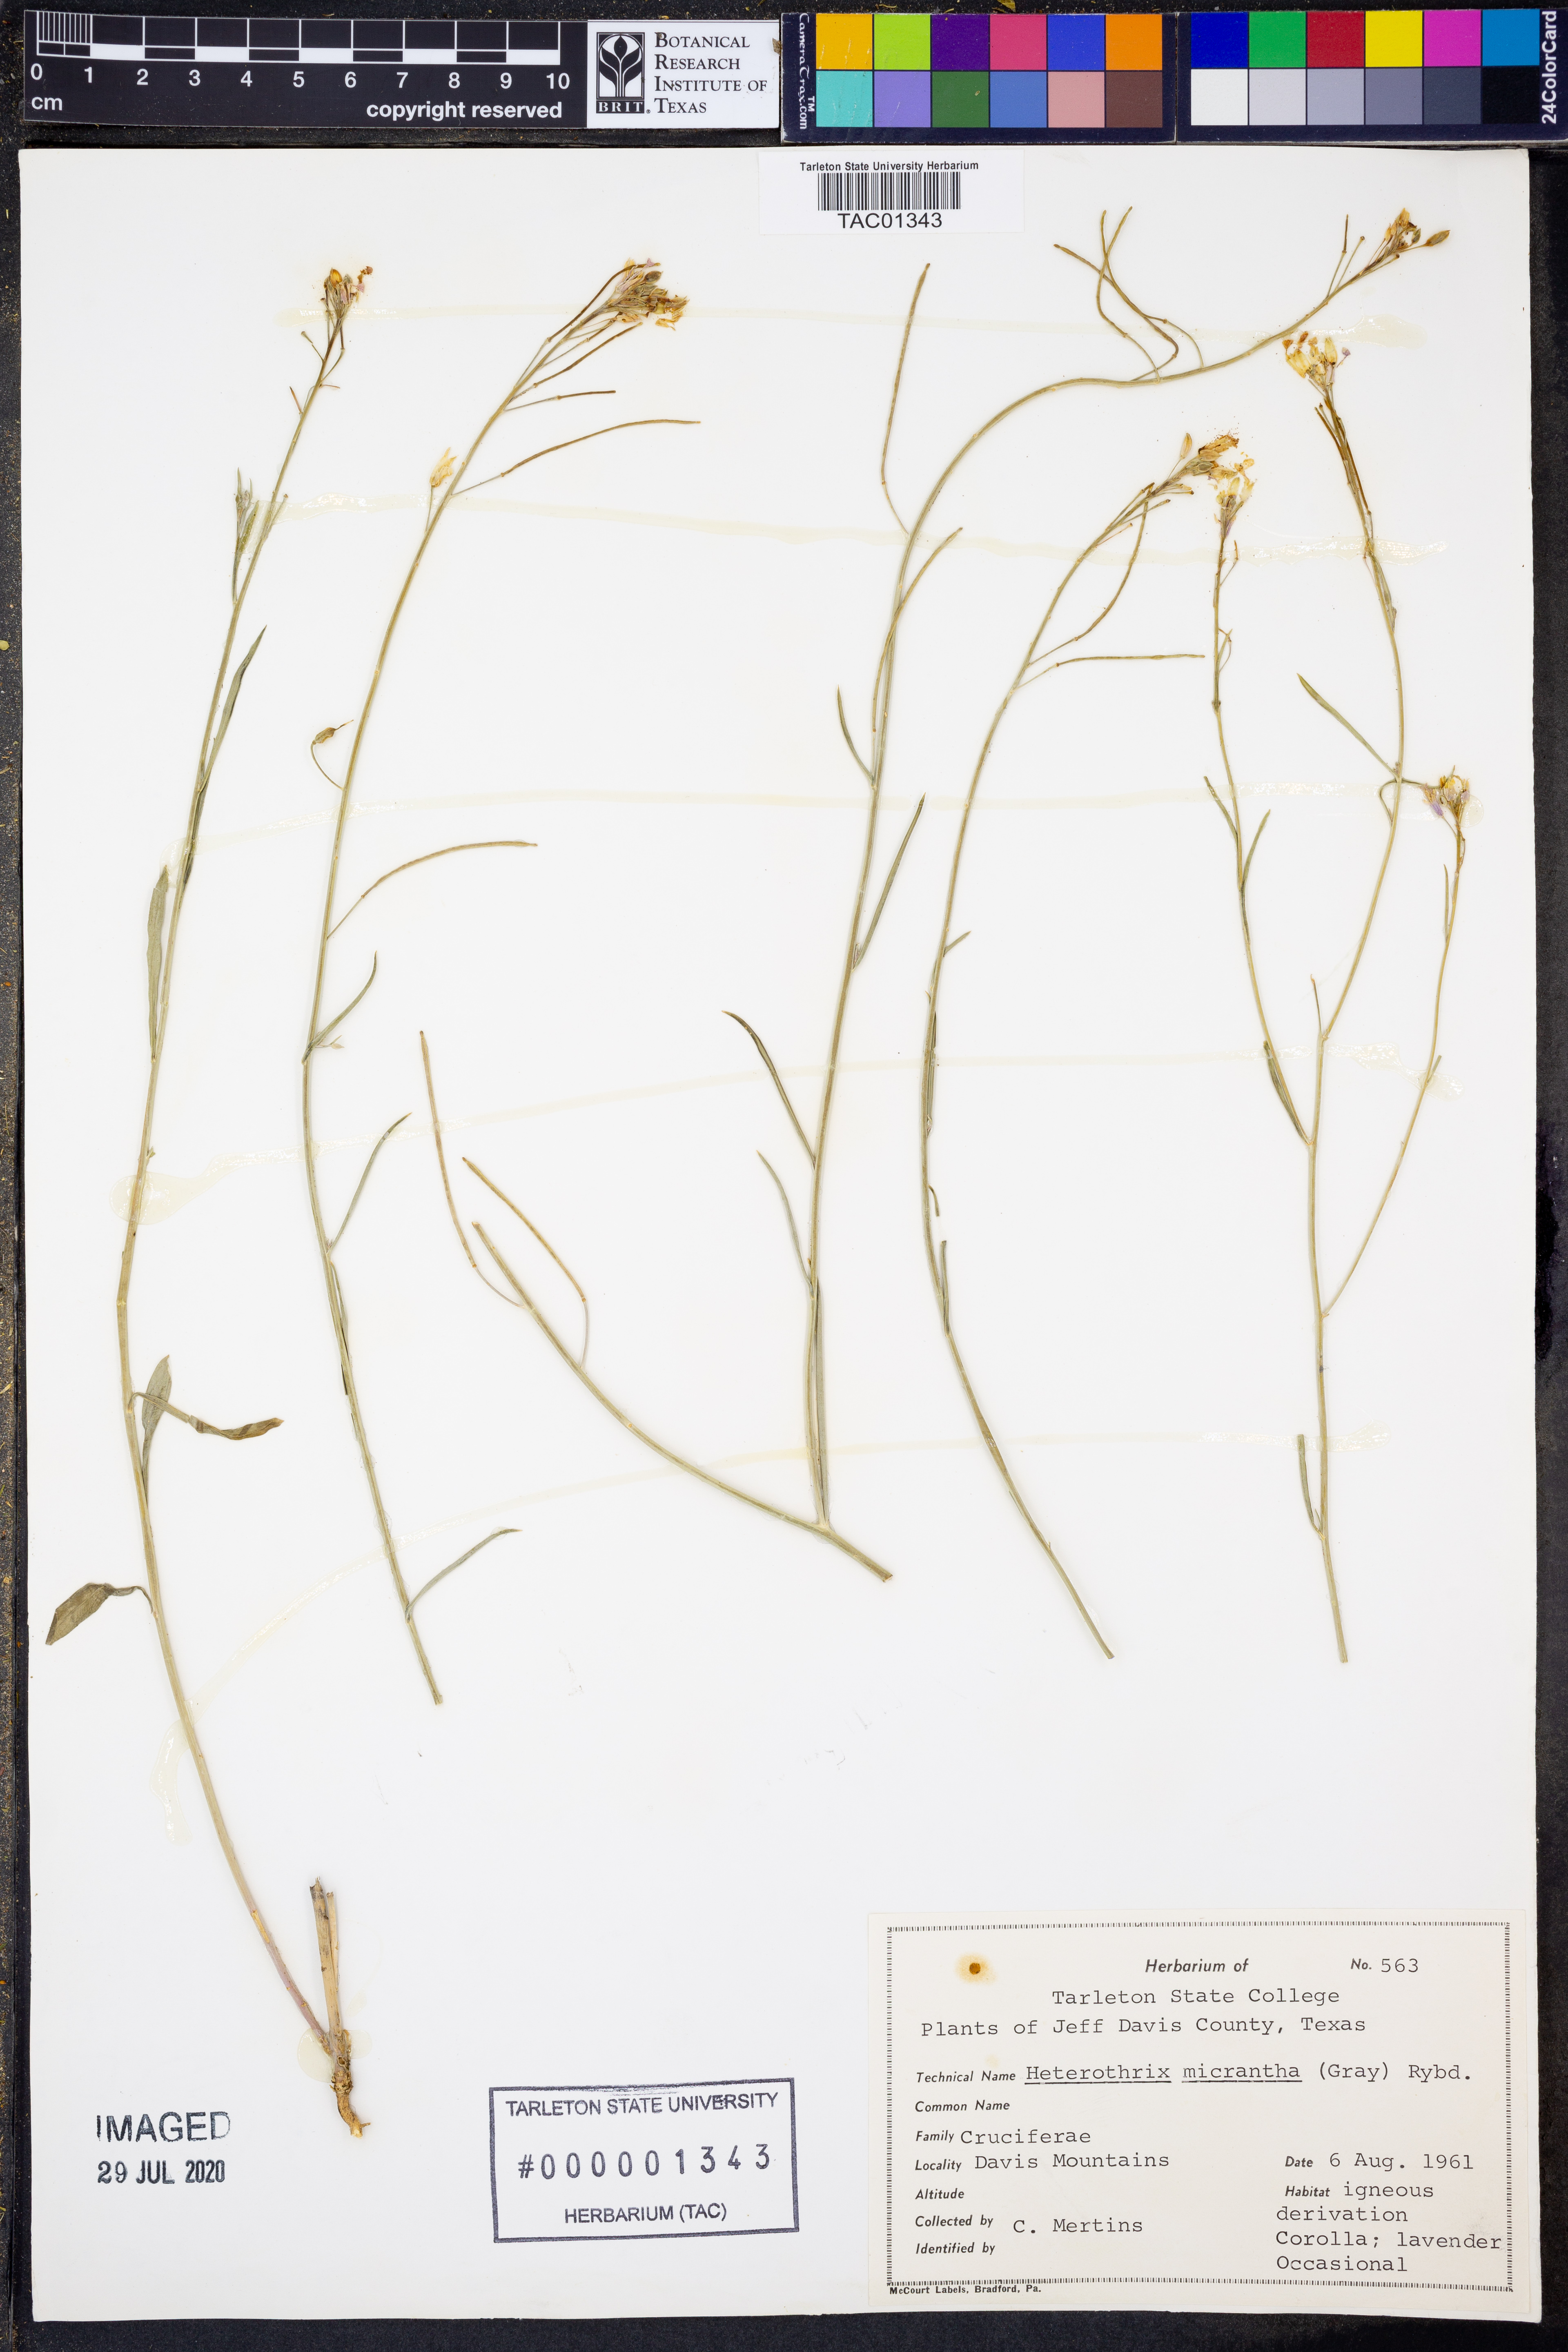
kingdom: Plantae
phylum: Tracheophyta
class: Magnoliopsida
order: Brassicales
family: Brassicaceae
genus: Pennellia
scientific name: Pennellia micrantha
